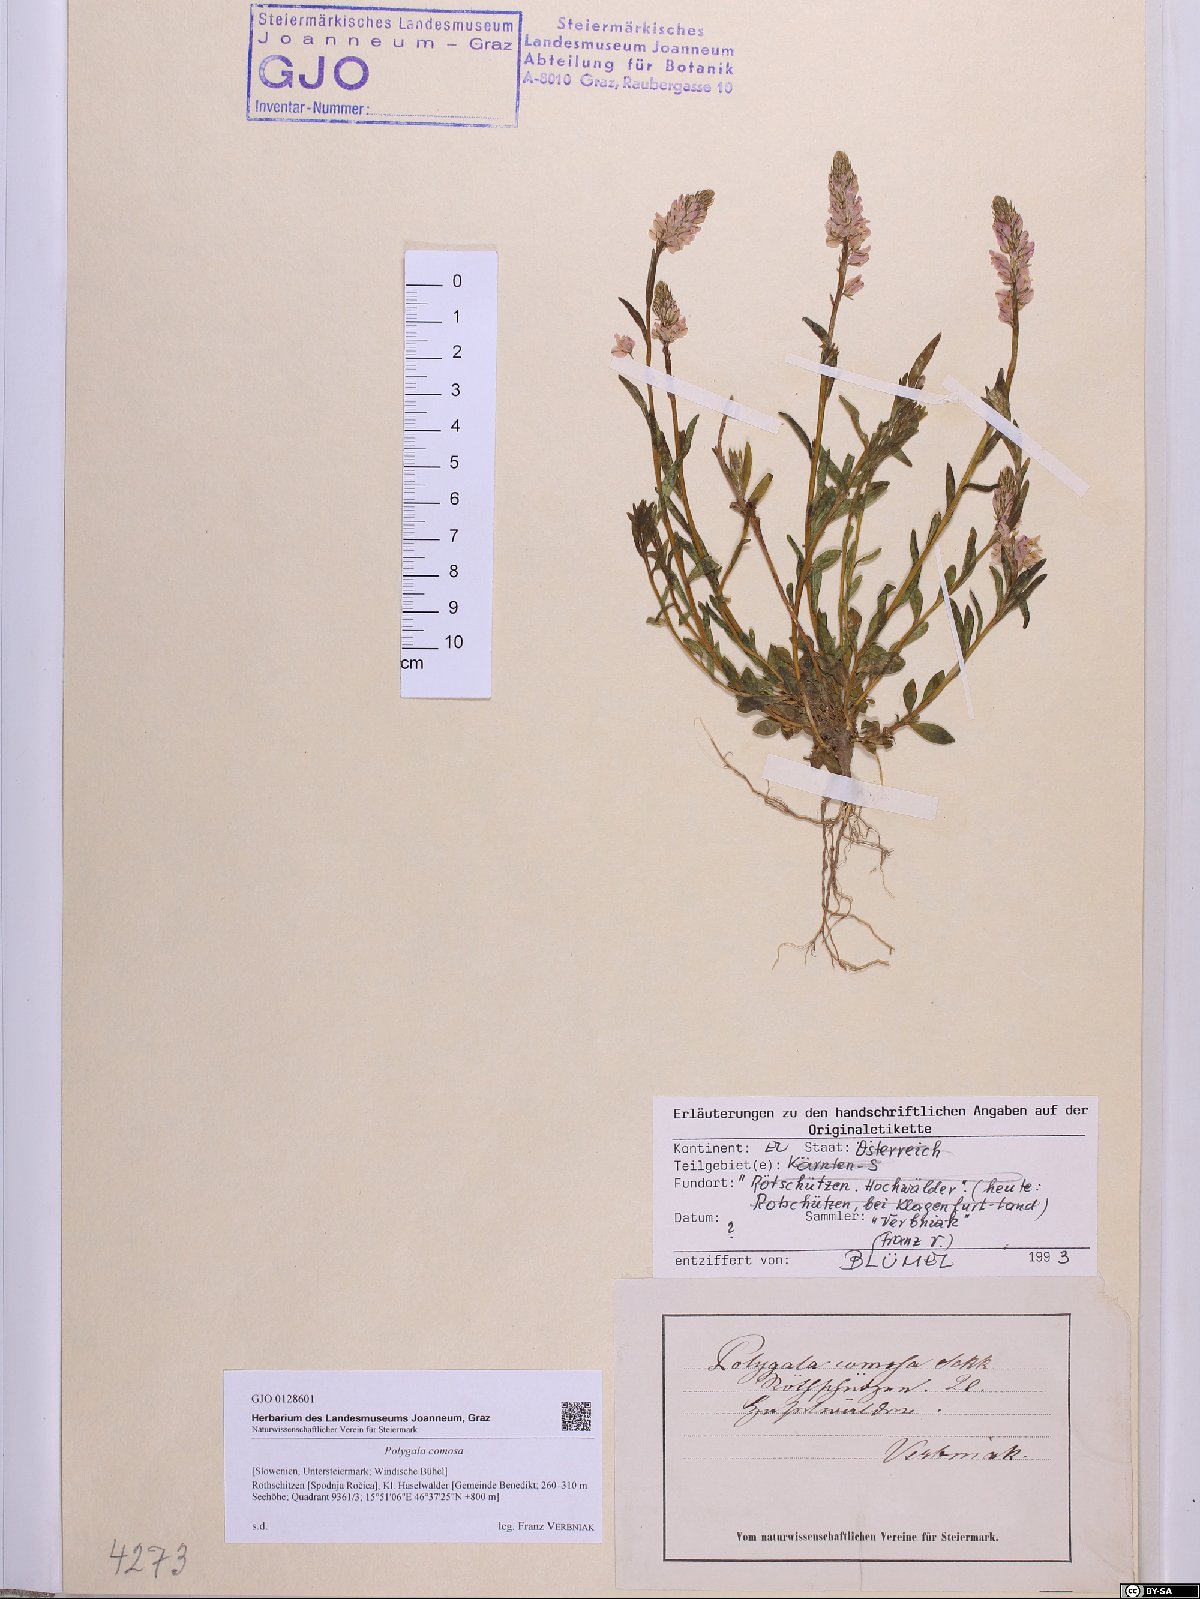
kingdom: Plantae
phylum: Tracheophyta
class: Magnoliopsida
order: Fabales
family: Polygalaceae
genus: Polygala
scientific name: Polygala comosa
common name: Tufted milkwort
